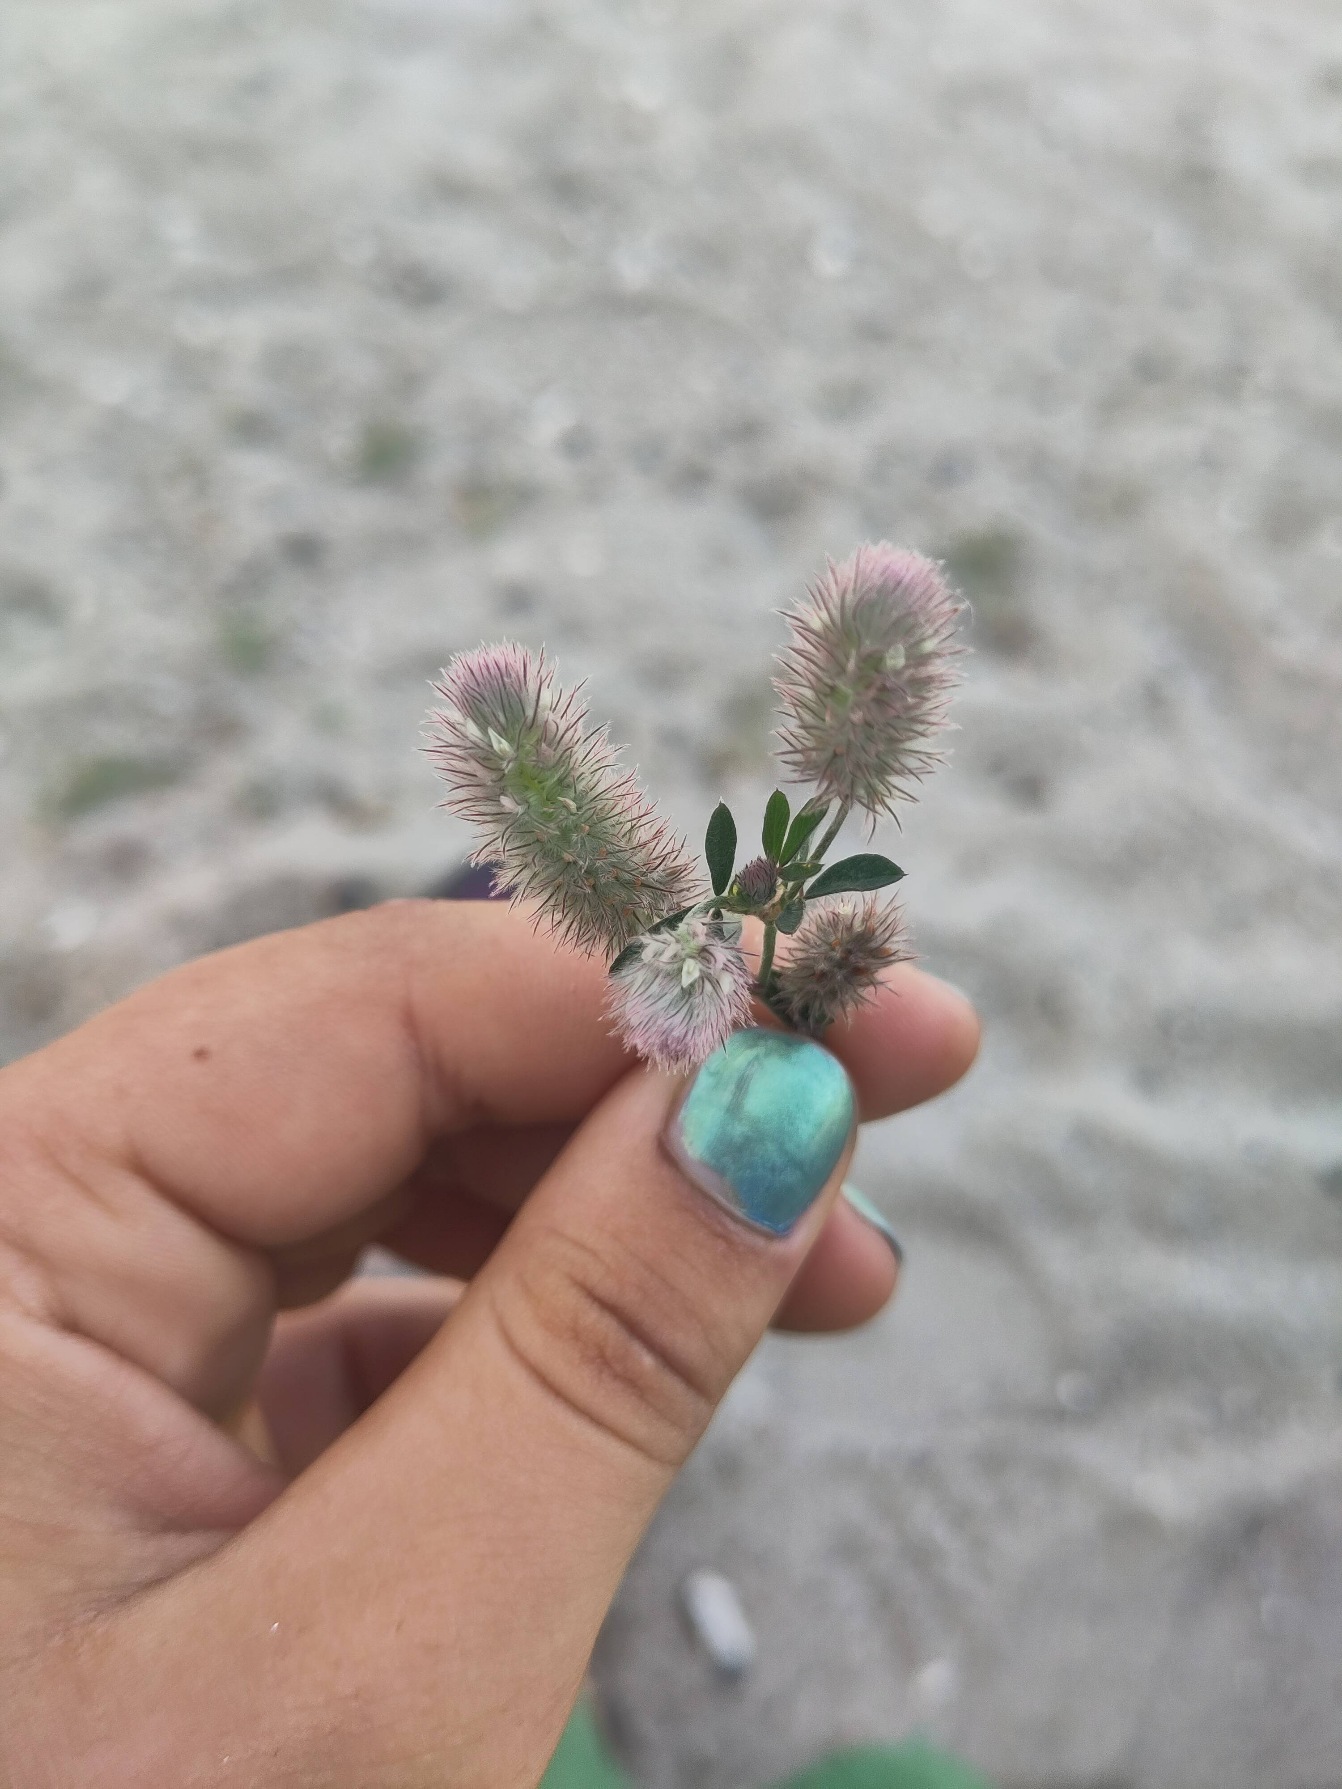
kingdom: Plantae
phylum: Tracheophyta
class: Magnoliopsida
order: Fabales
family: Fabaceae
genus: Trifolium
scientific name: Trifolium arvense
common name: Hare-kløver
